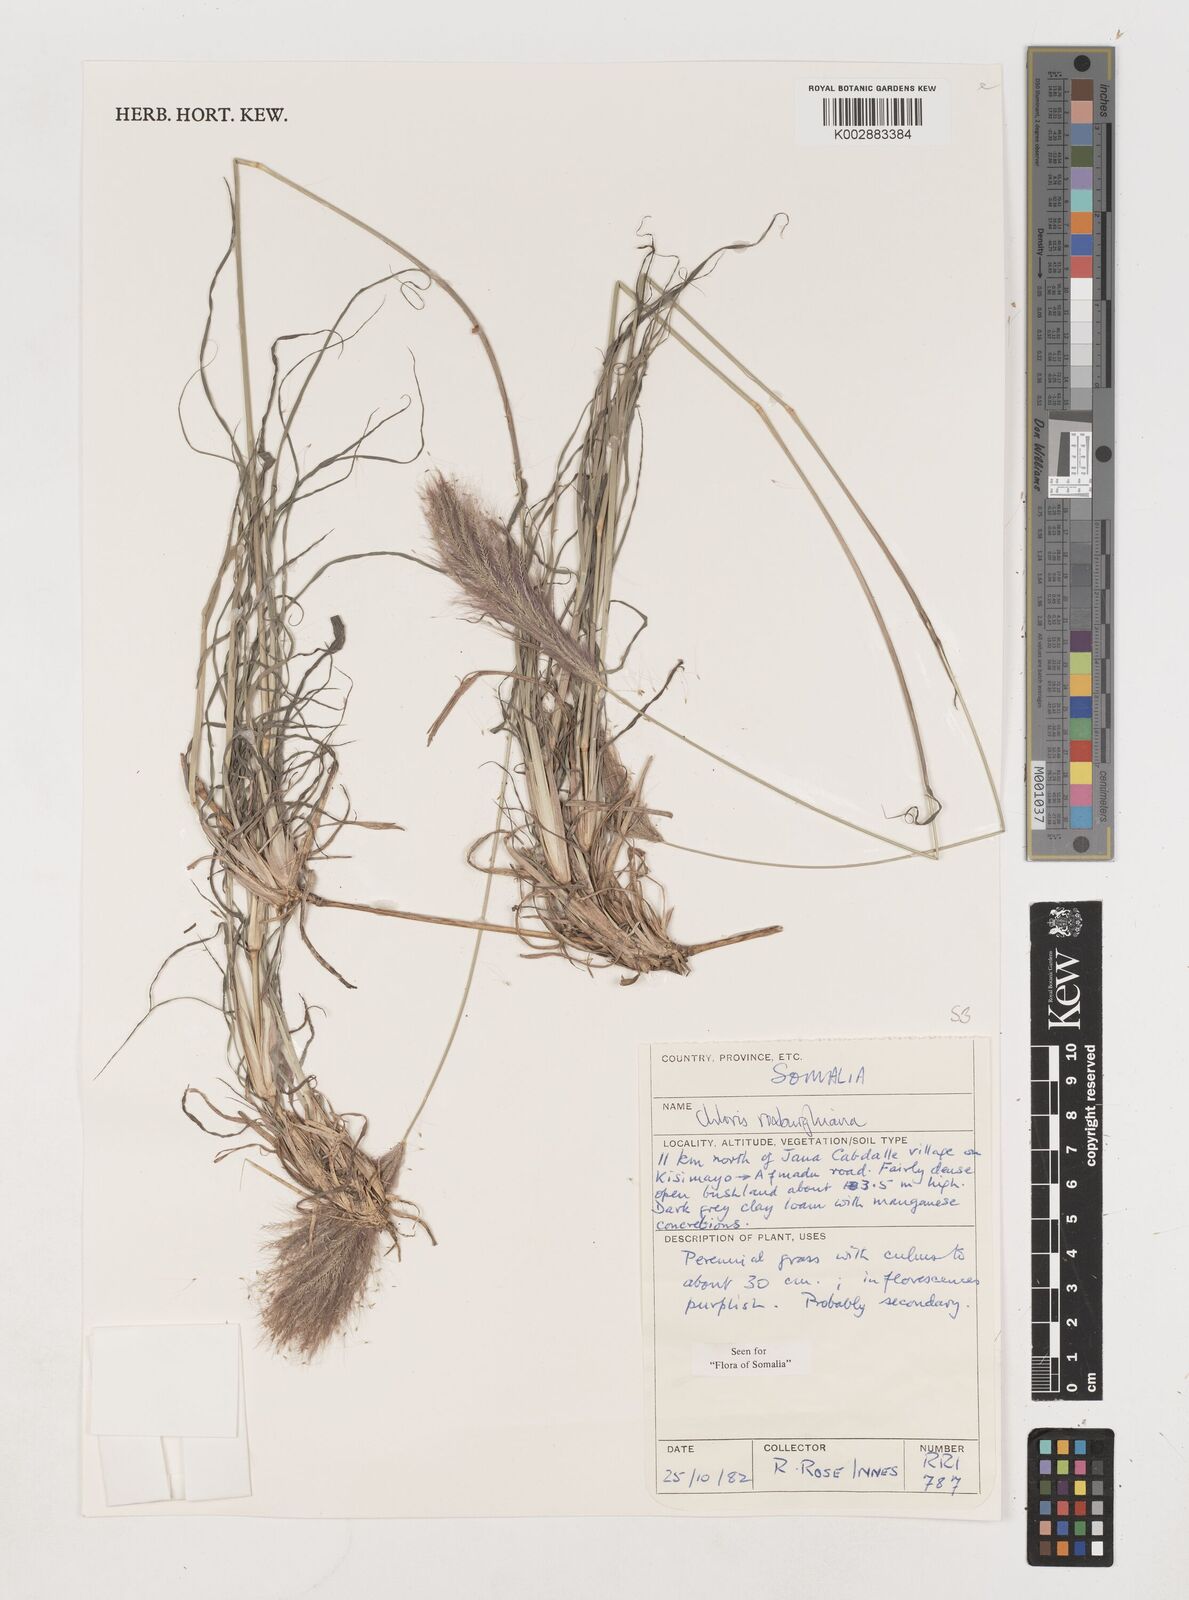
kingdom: Plantae
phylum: Tracheophyta
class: Liliopsida
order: Poales
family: Poaceae
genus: Tetrapogon
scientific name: Tetrapogon roxburghiana
